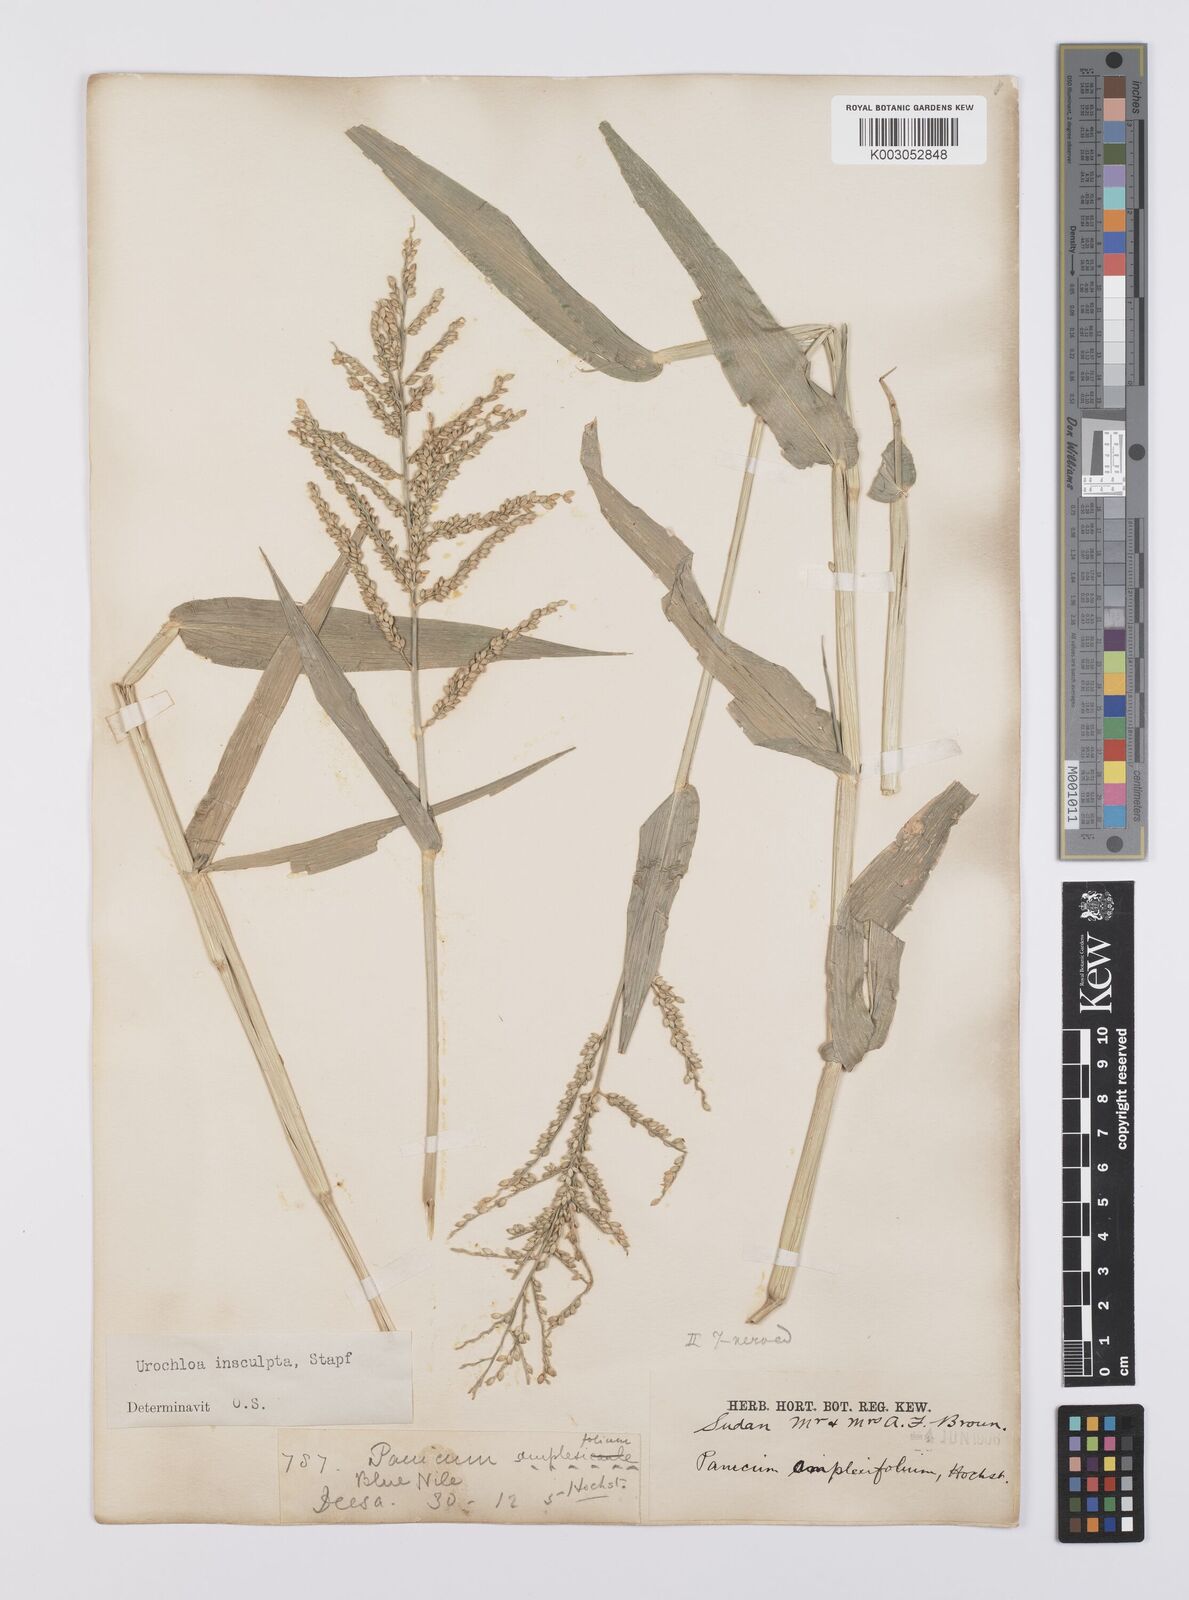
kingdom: Plantae
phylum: Tracheophyta
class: Liliopsida
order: Poales
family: Poaceae
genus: Urochloa
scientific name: Urochloa lata
